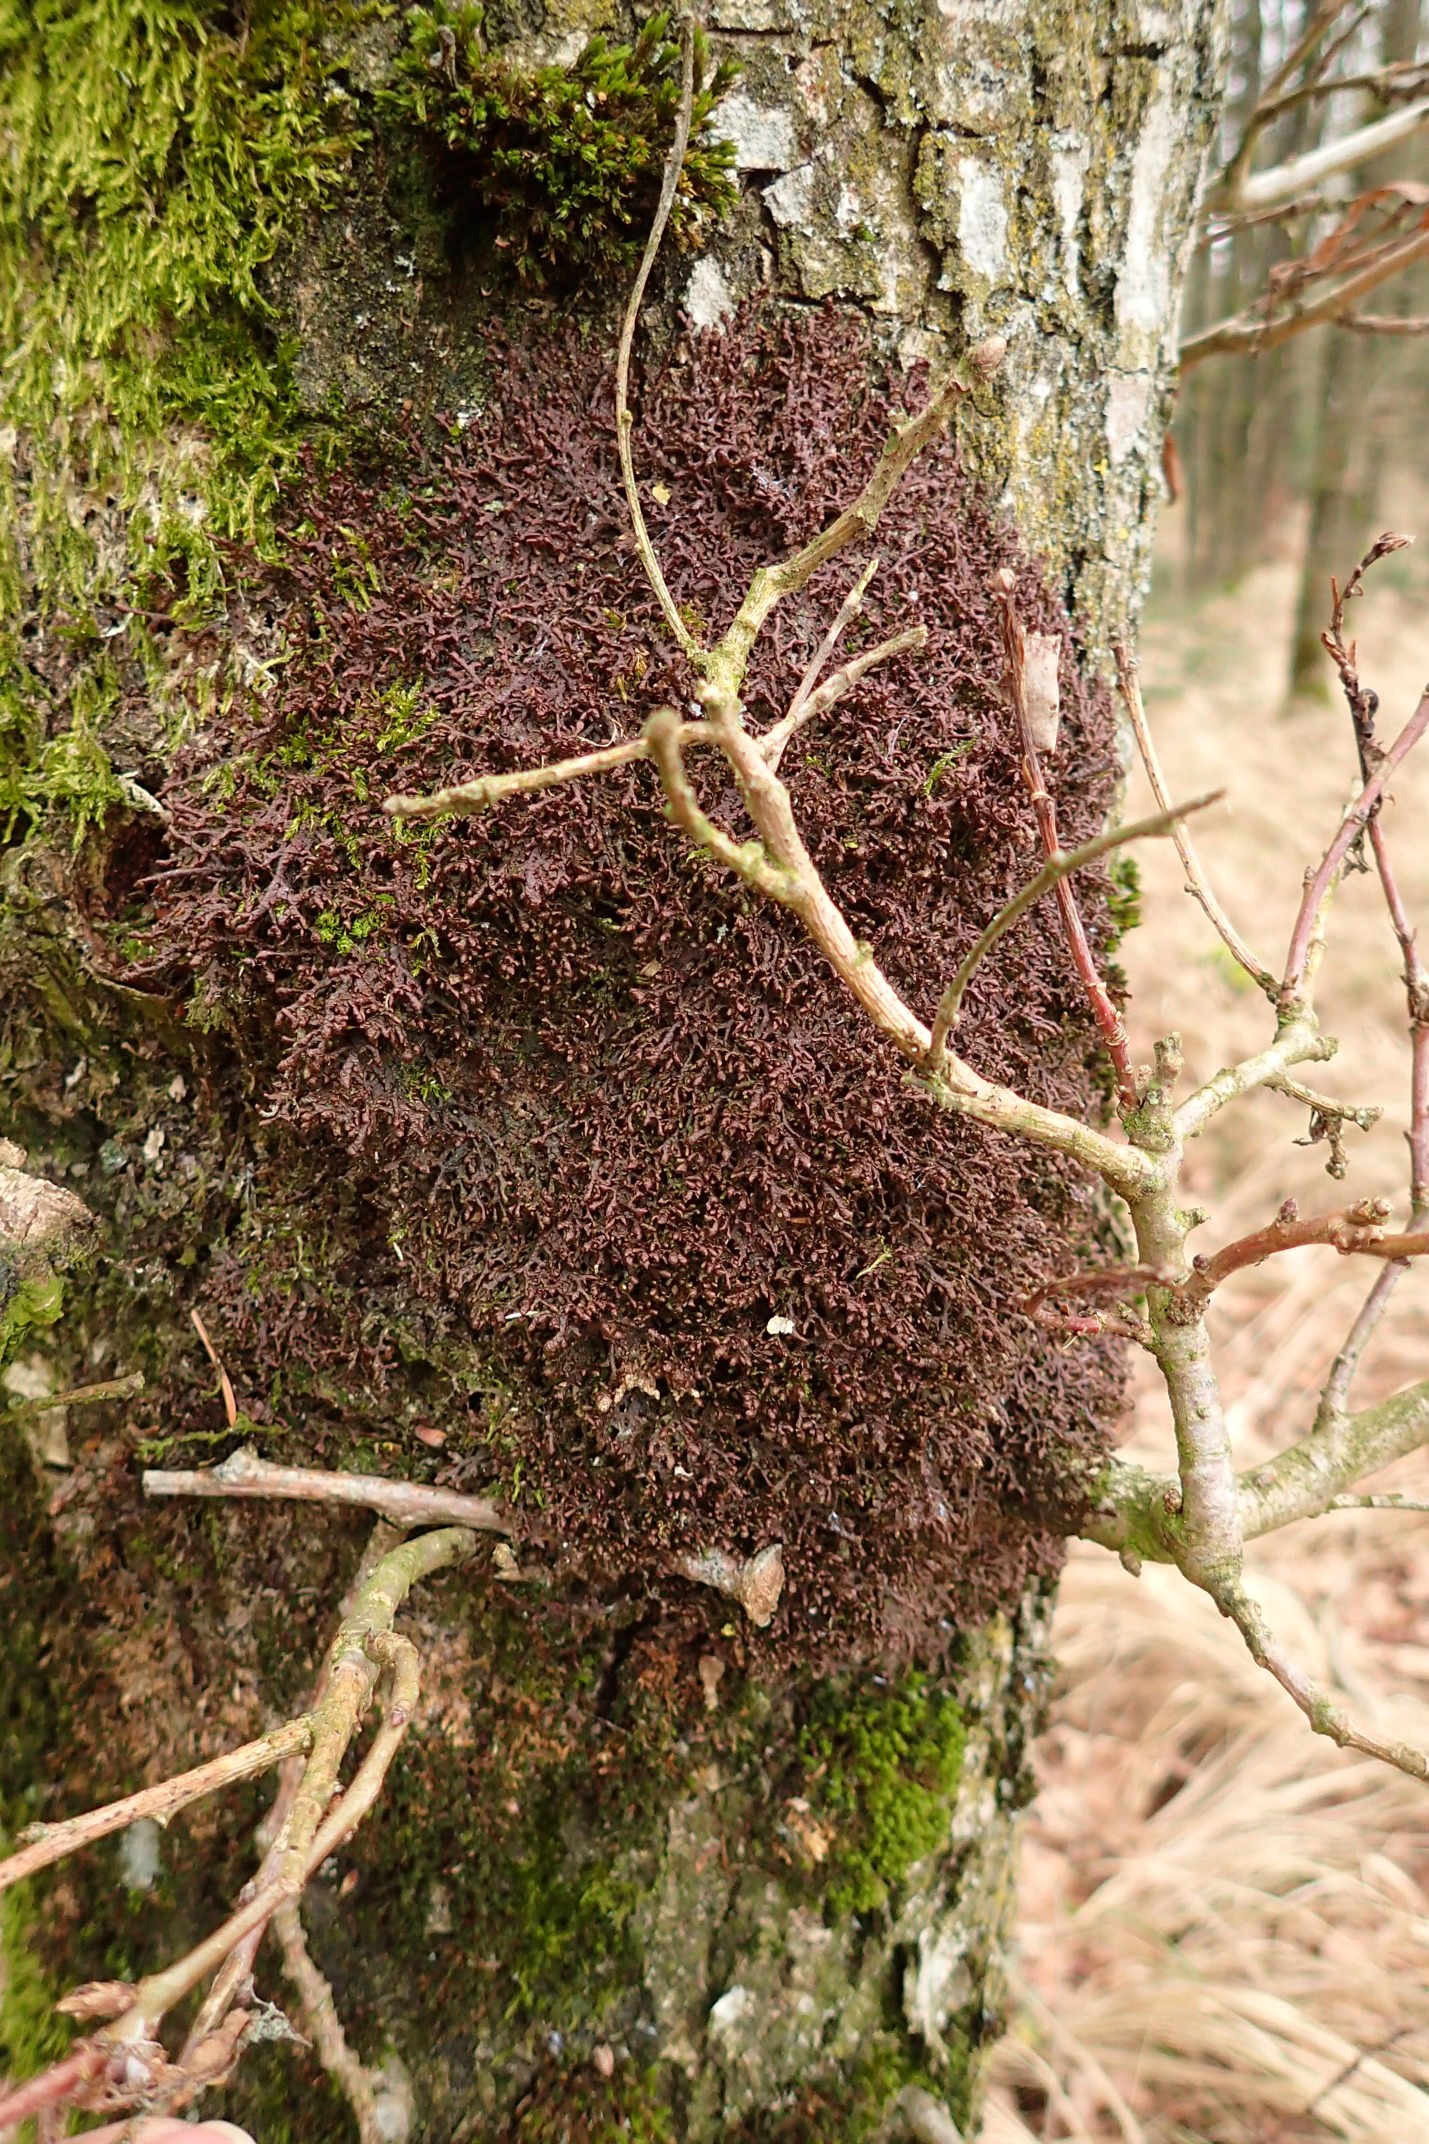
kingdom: Plantae
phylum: Marchantiophyta
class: Jungermanniopsida
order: Porellales
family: Frullaniaceae
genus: Frullania
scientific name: Frullania tamarisci
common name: Glinsende bronzemos
